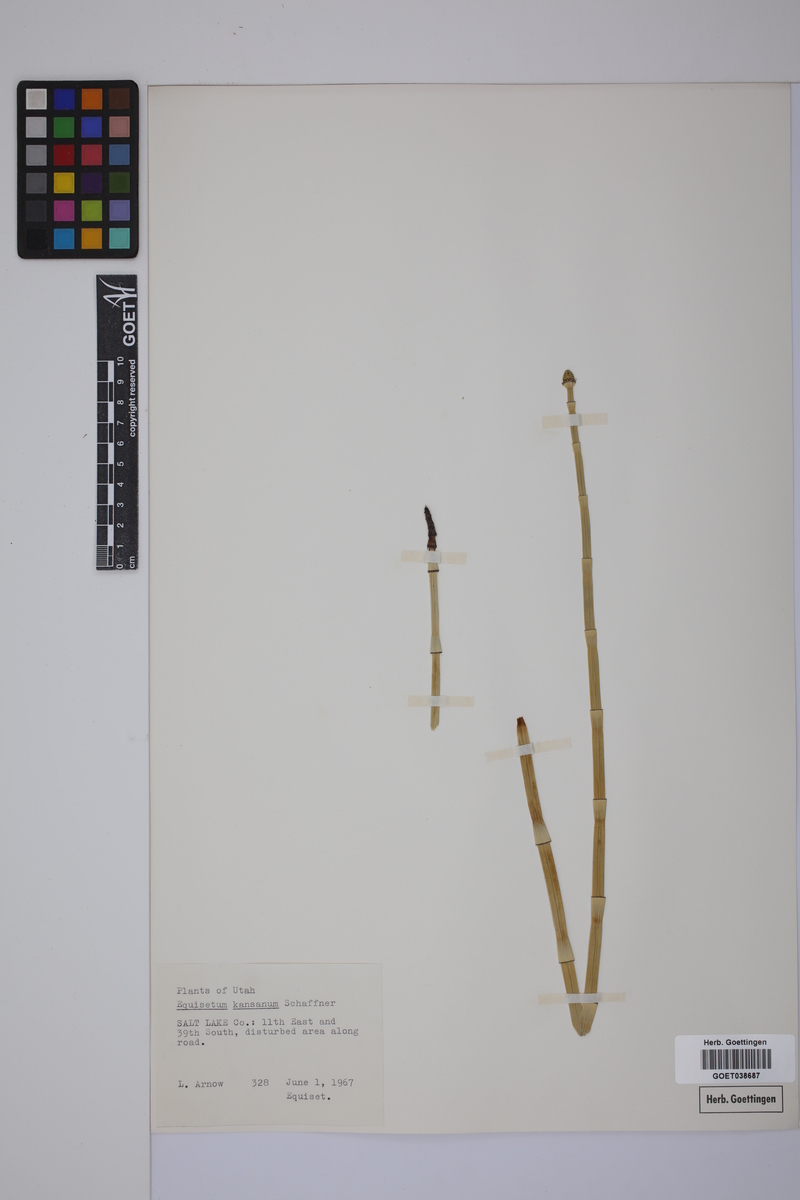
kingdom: Plantae
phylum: Tracheophyta
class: Polypodiopsida
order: Equisetales
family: Equisetaceae
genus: Equisetum
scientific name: Equisetum laevigatum
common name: Smooth scouring-rush
